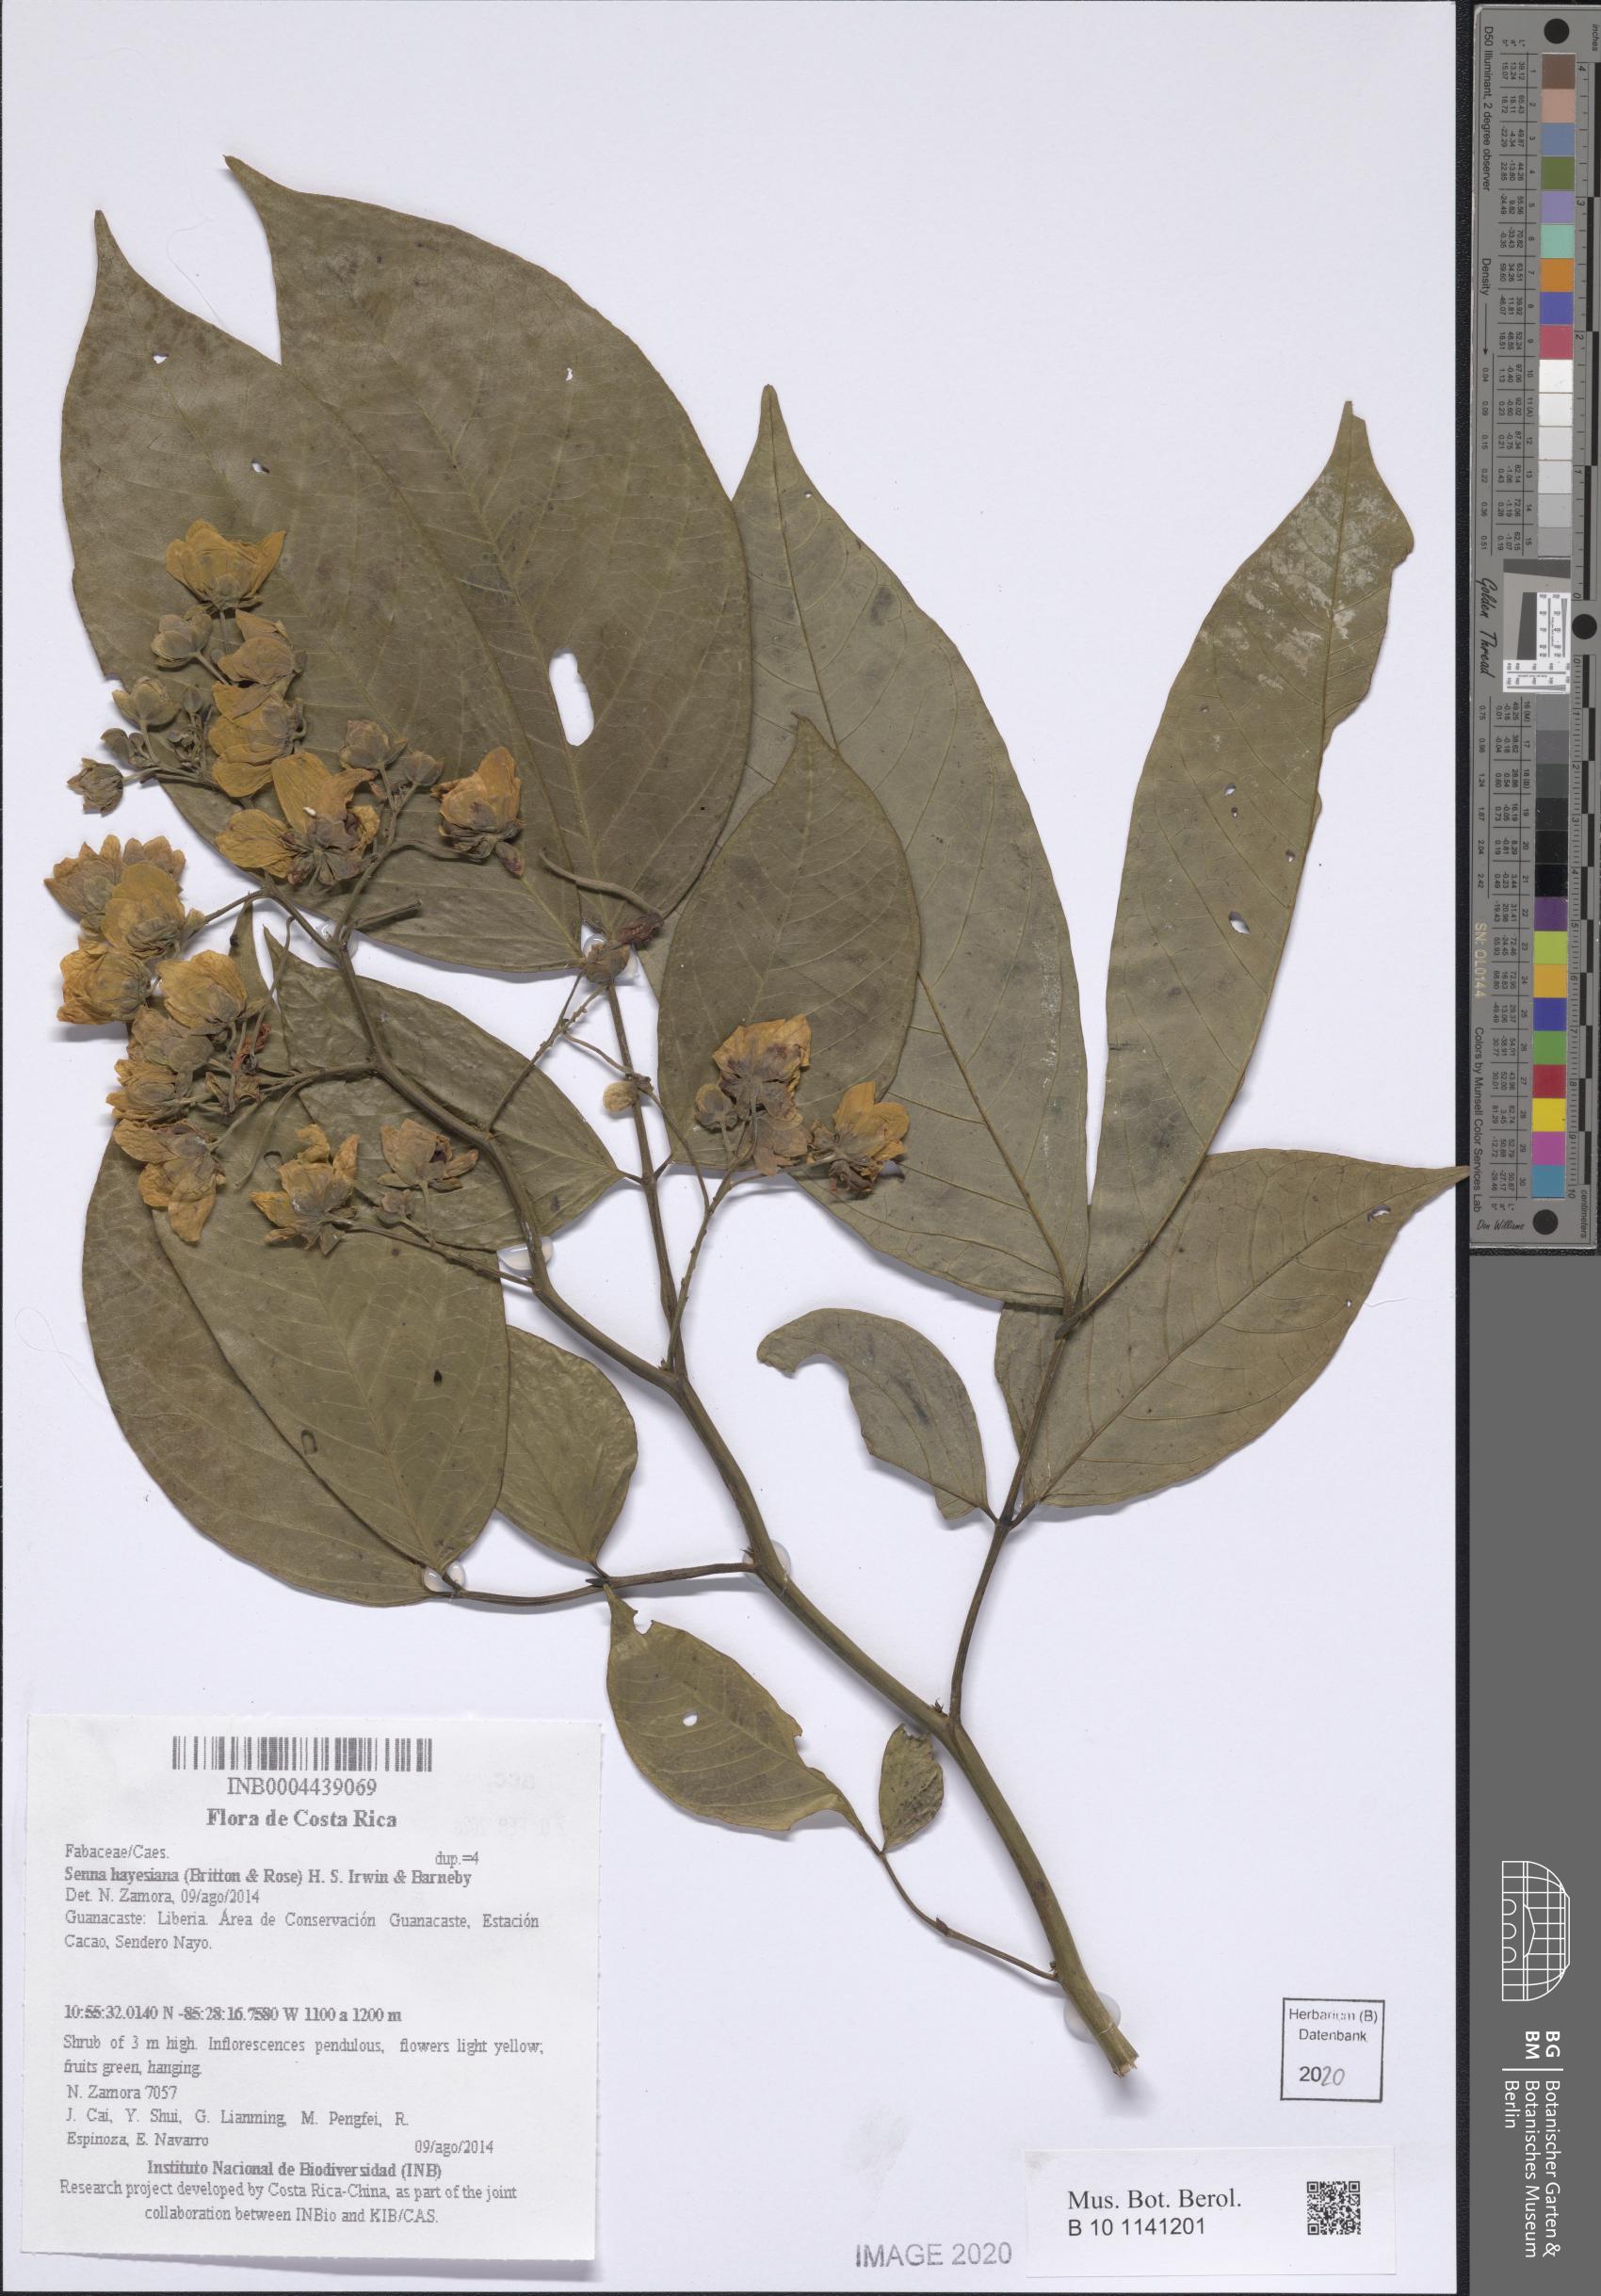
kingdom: Plantae
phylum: Tracheophyta
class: Magnoliopsida
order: Fabales
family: Fabaceae
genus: Senna
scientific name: Senna hayesiana
